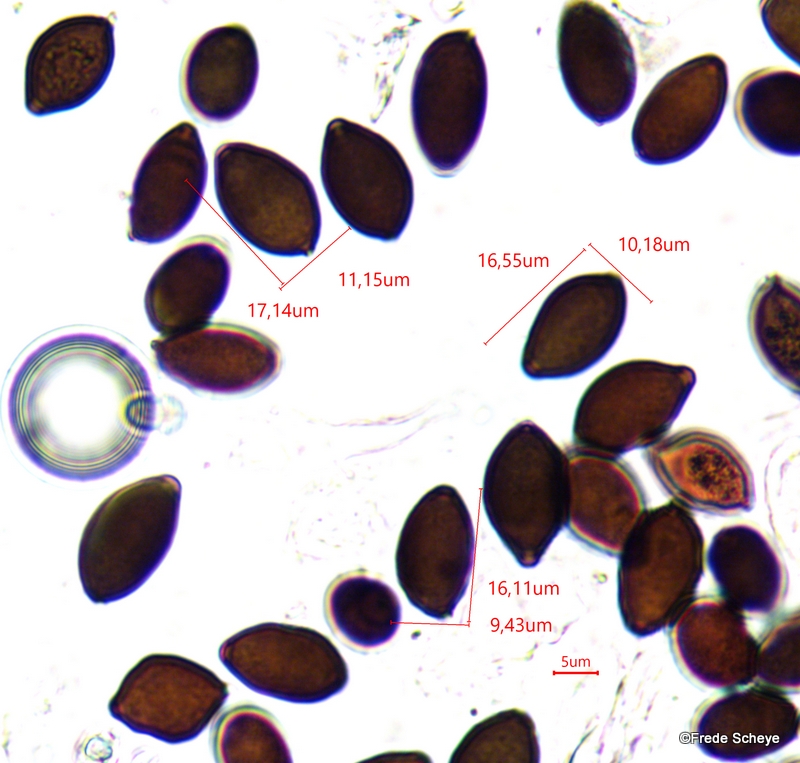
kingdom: Fungi
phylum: Basidiomycota
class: Agaricomycetes
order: Agaricales
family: Bolbitiaceae
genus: Panaeolus
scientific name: Panaeolus papilionaceus
